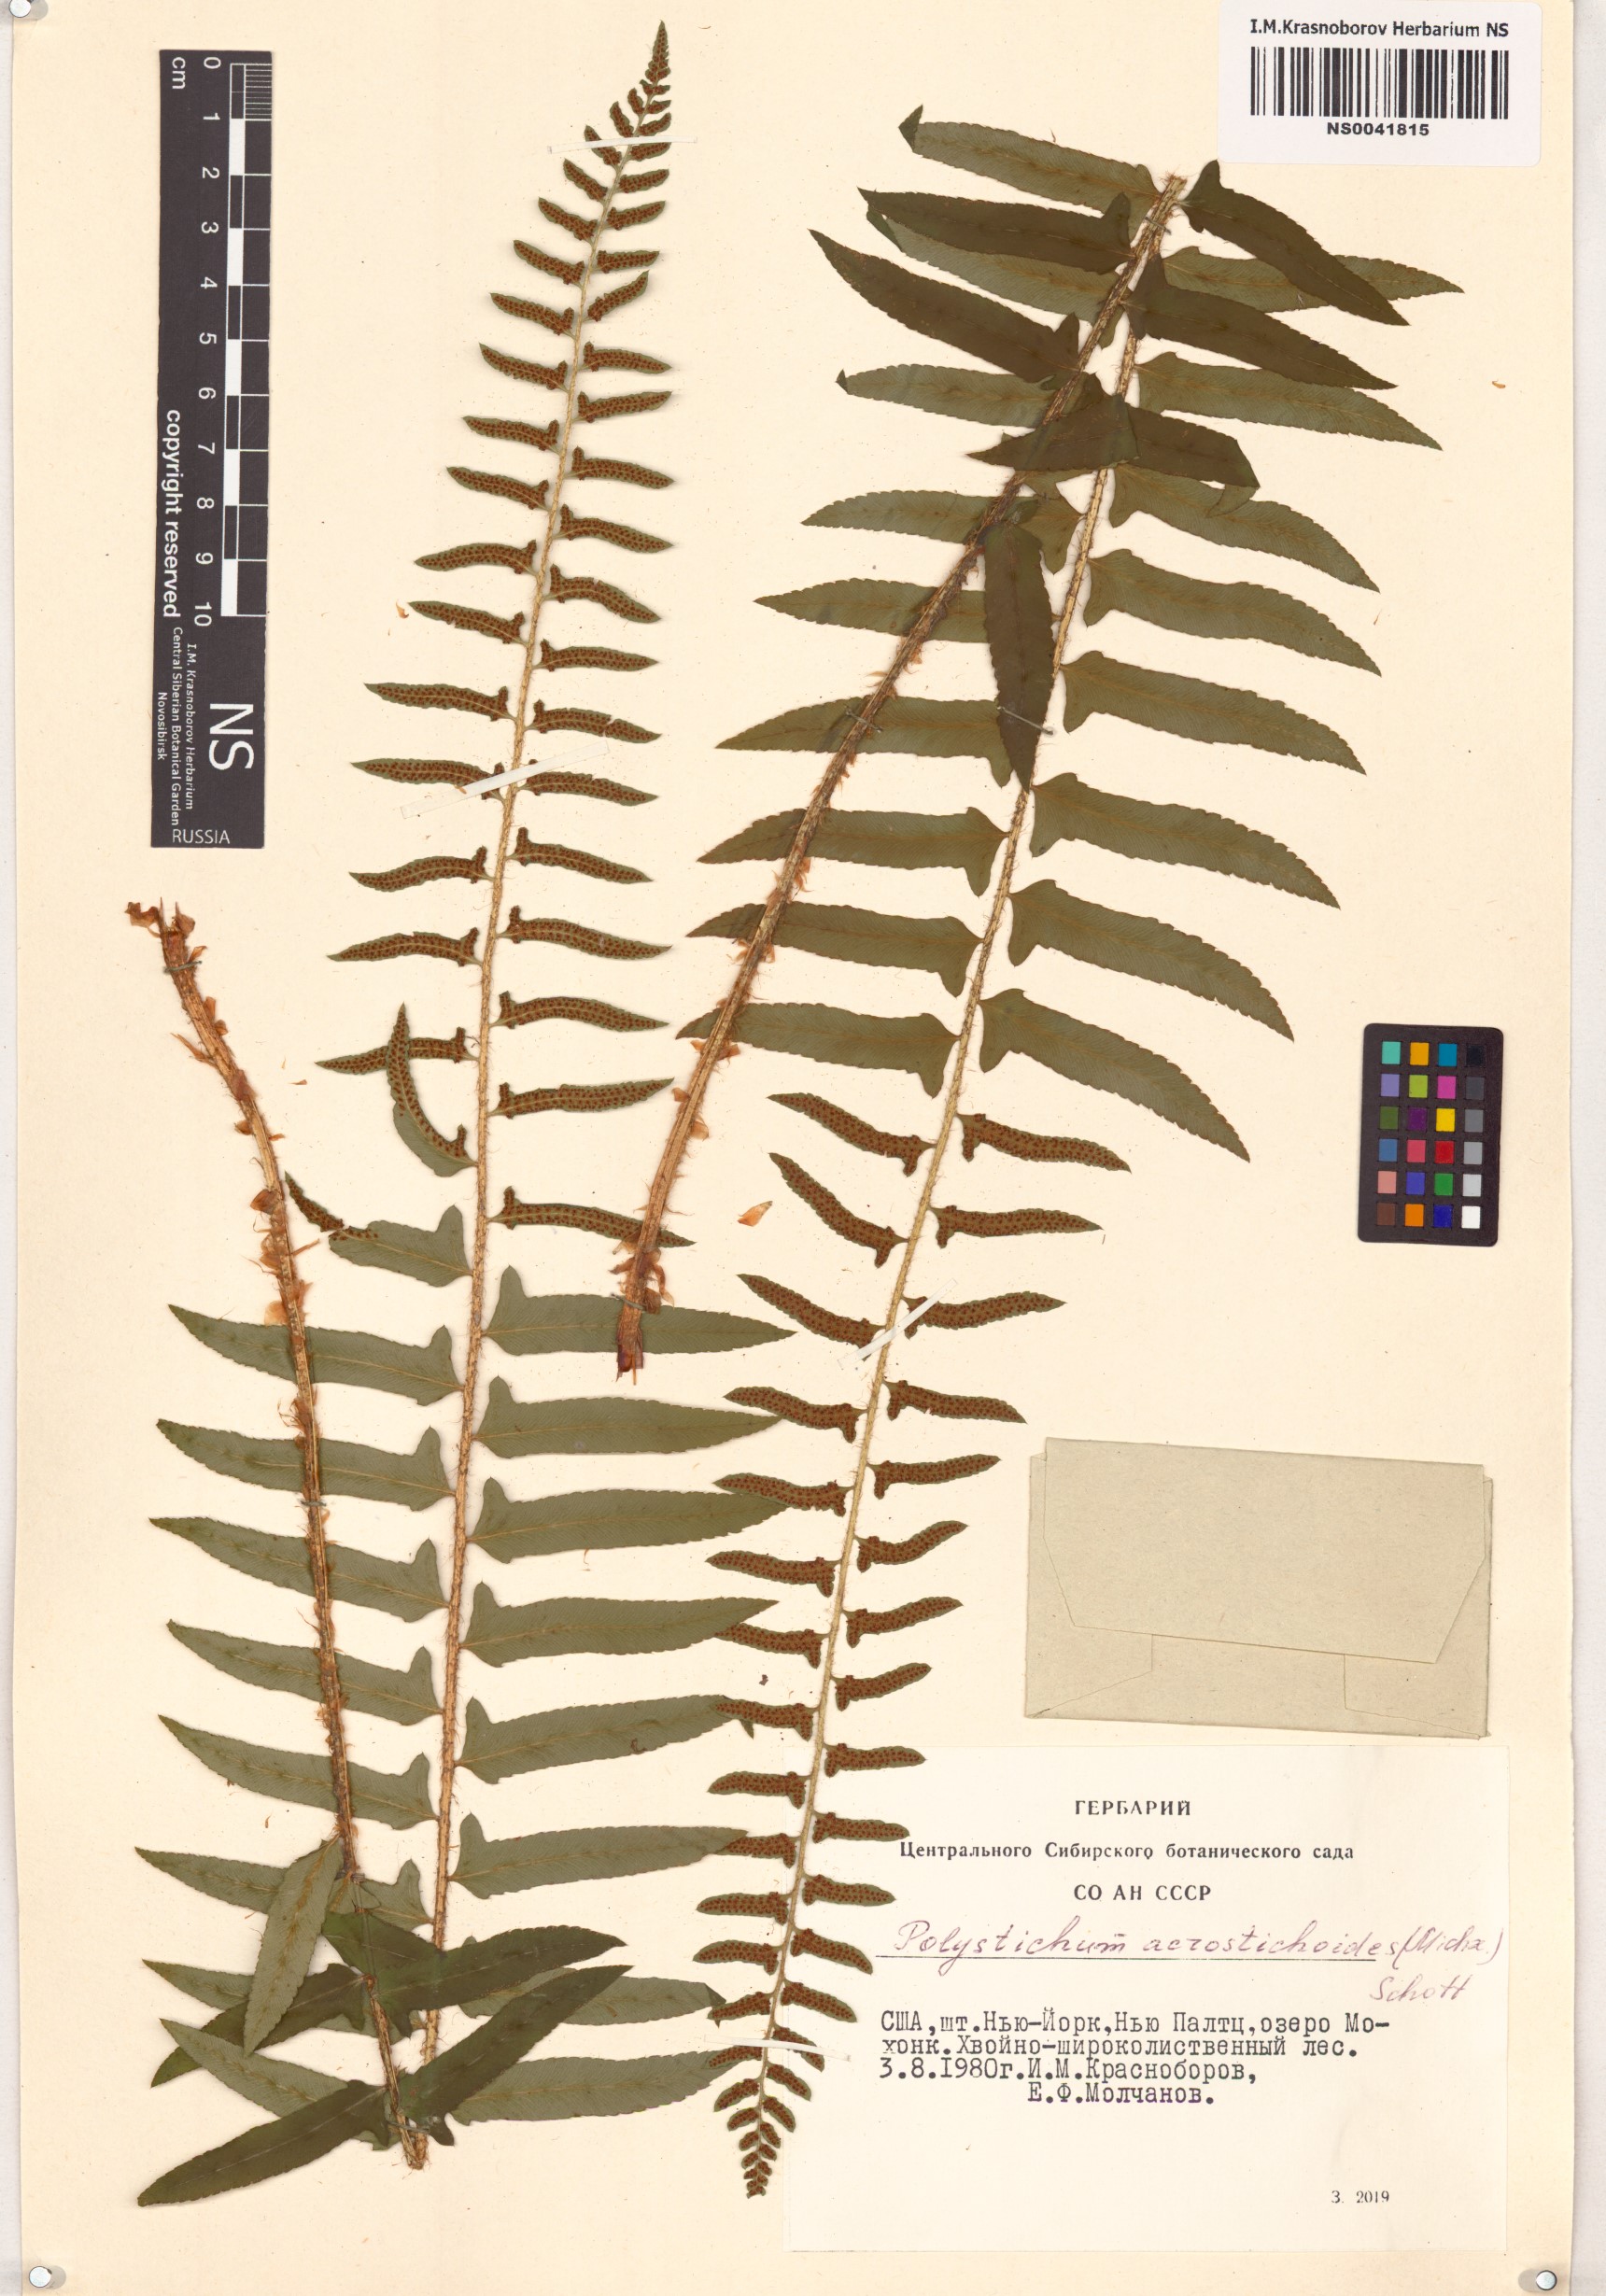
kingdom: Plantae
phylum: Tracheophyta
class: Polypodiopsida
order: Polypodiales
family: Dryopteridaceae
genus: Polystichum
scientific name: Polystichum acrostichoides
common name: Christmas fern
